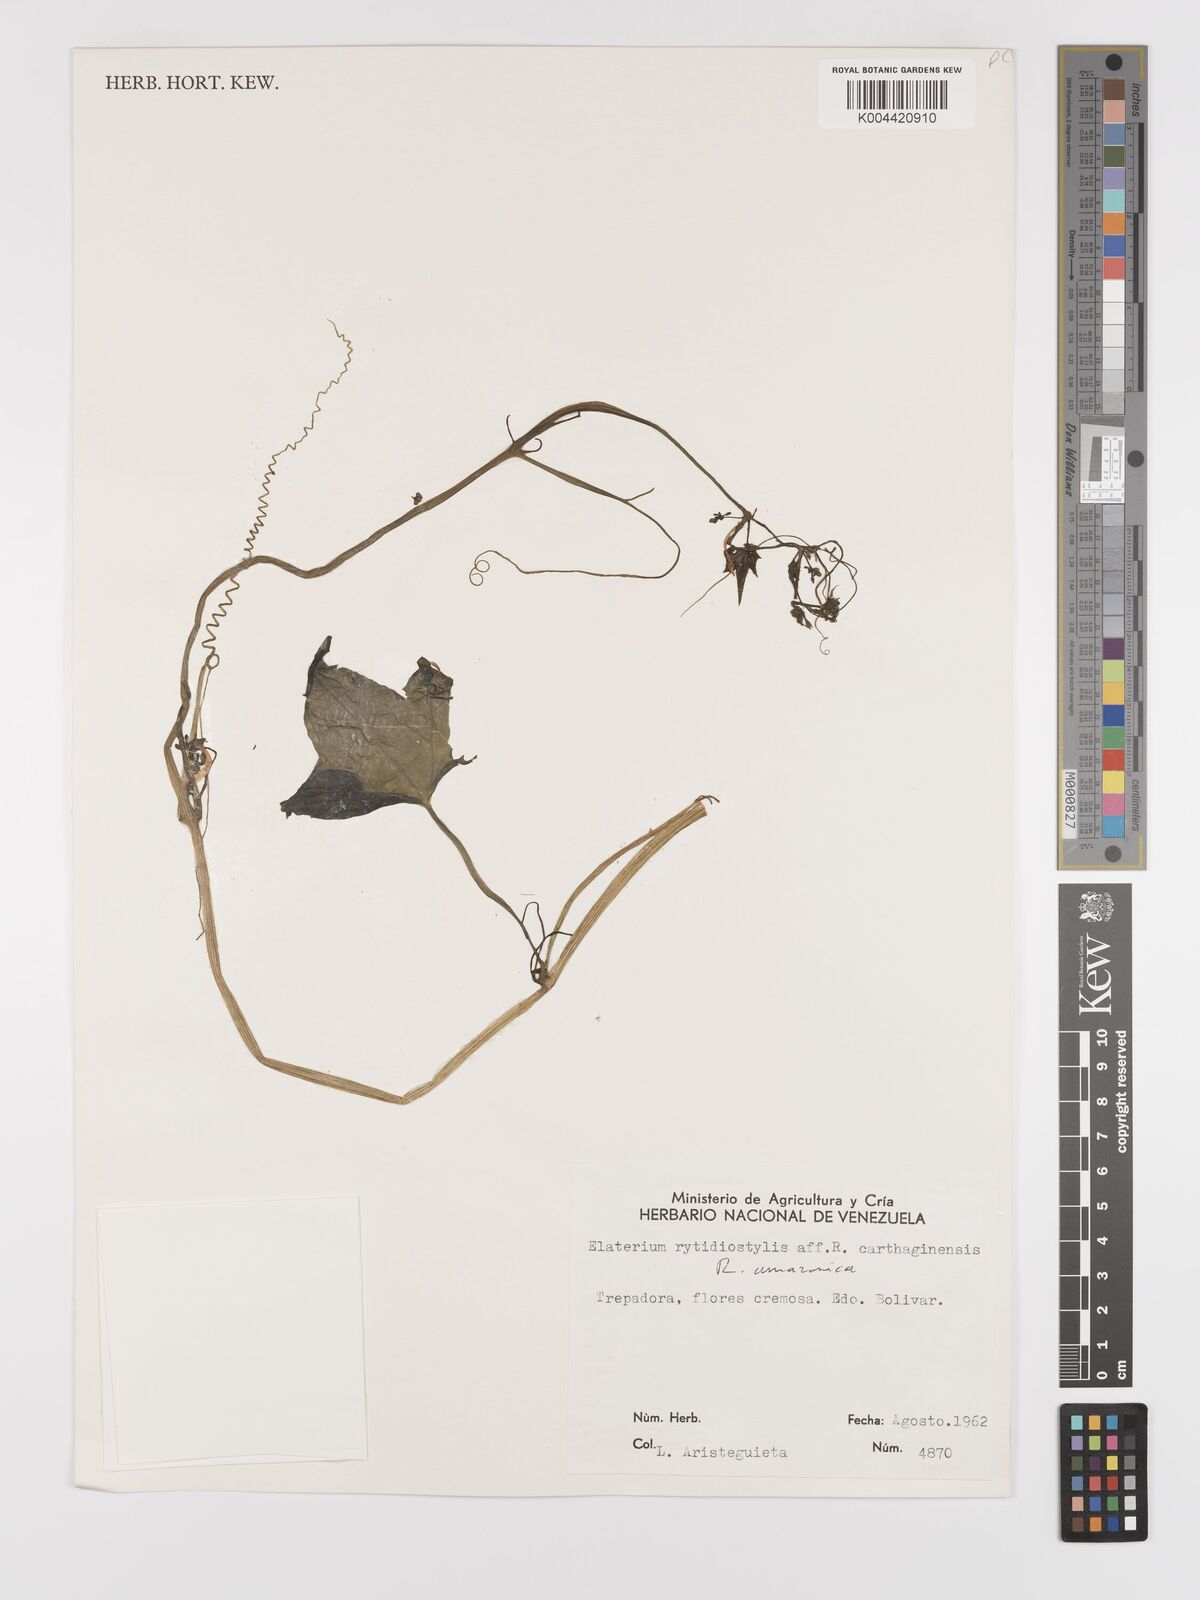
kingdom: Plantae
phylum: Tracheophyta
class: Magnoliopsida
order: Cucurbitales
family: Cucurbitaceae
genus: Cyclanthera
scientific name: Cyclanthera carthagenensis
